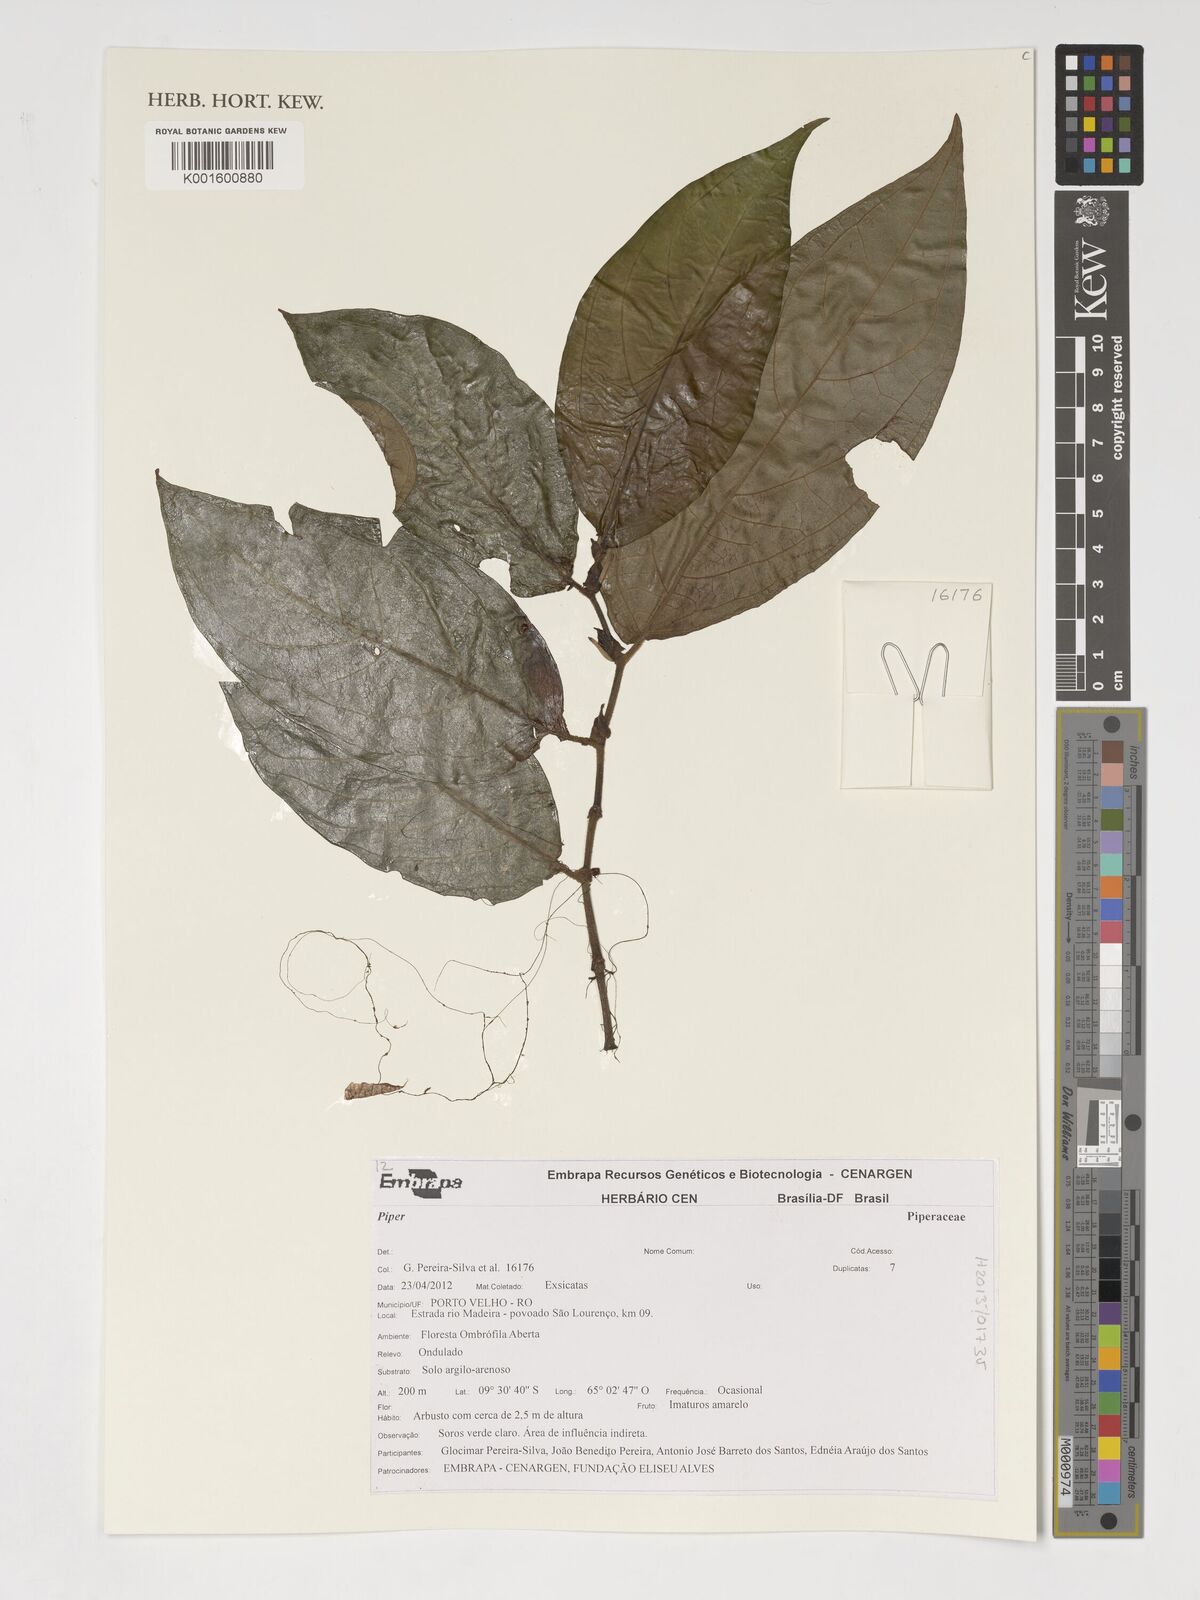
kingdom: Plantae
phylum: Tracheophyta
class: Magnoliopsida
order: Piperales
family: Piperaceae
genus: Piper
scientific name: Piper
